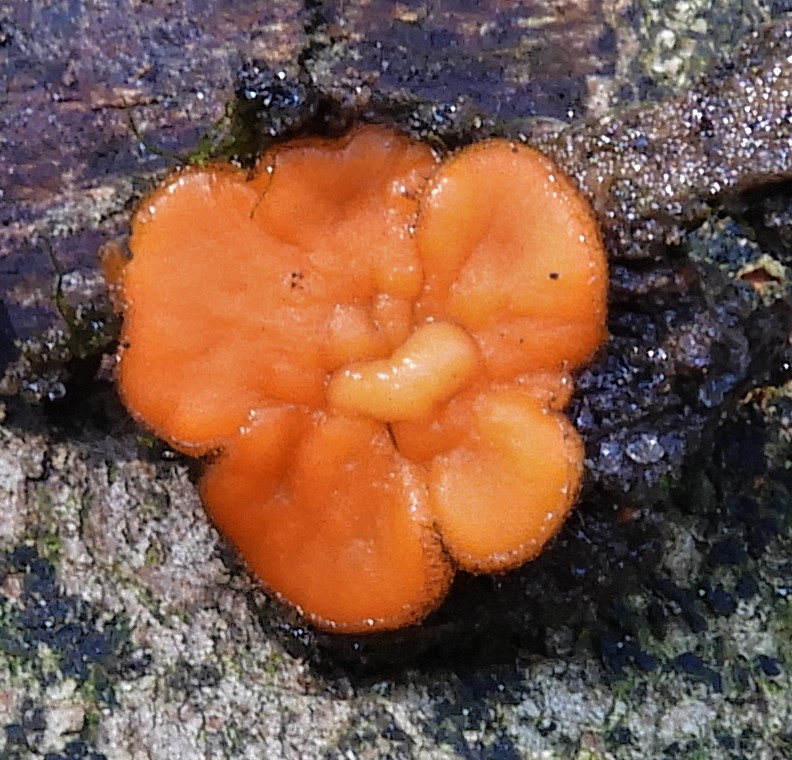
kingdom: Fungi
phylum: Ascomycota
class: Pezizomycetes
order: Pezizales
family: Pyronemataceae
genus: Scutellinia
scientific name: Scutellinia
